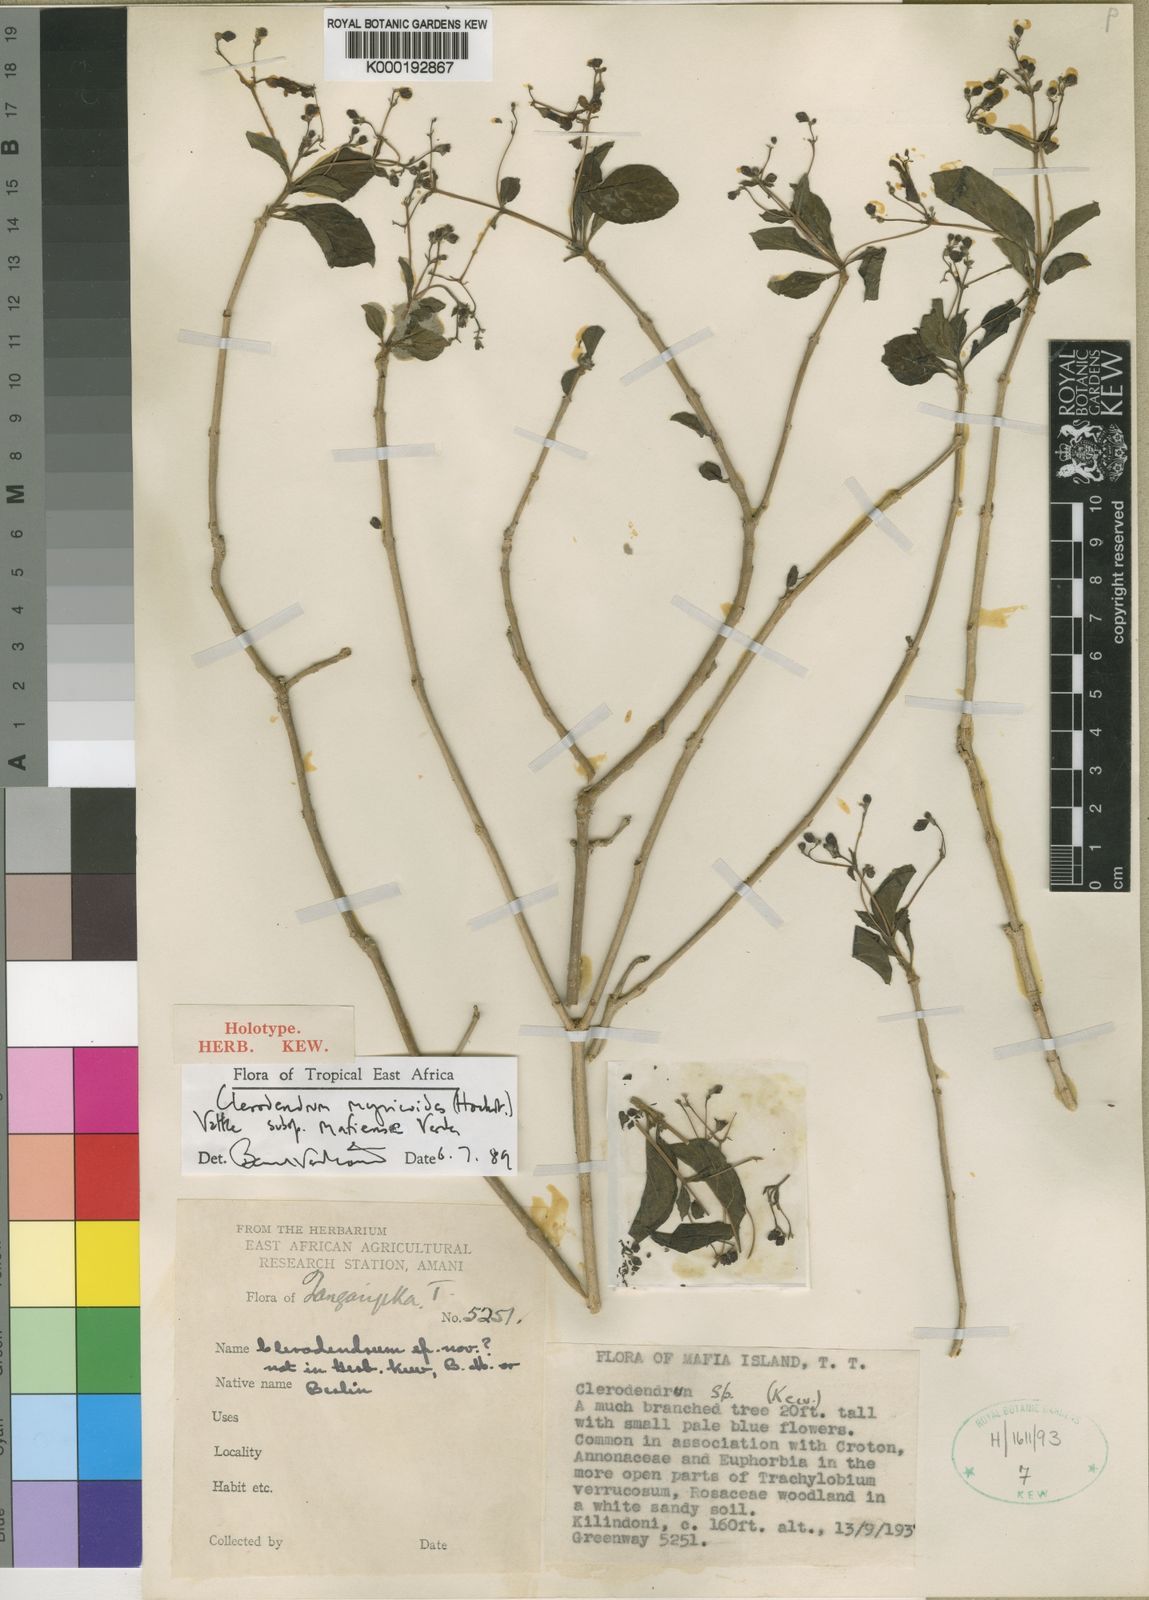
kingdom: Plantae
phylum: Tracheophyta
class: Magnoliopsida
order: Lamiales
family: Lamiaceae
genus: Rotheca
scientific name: Rotheca myricoides
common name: Cats-whiskers
